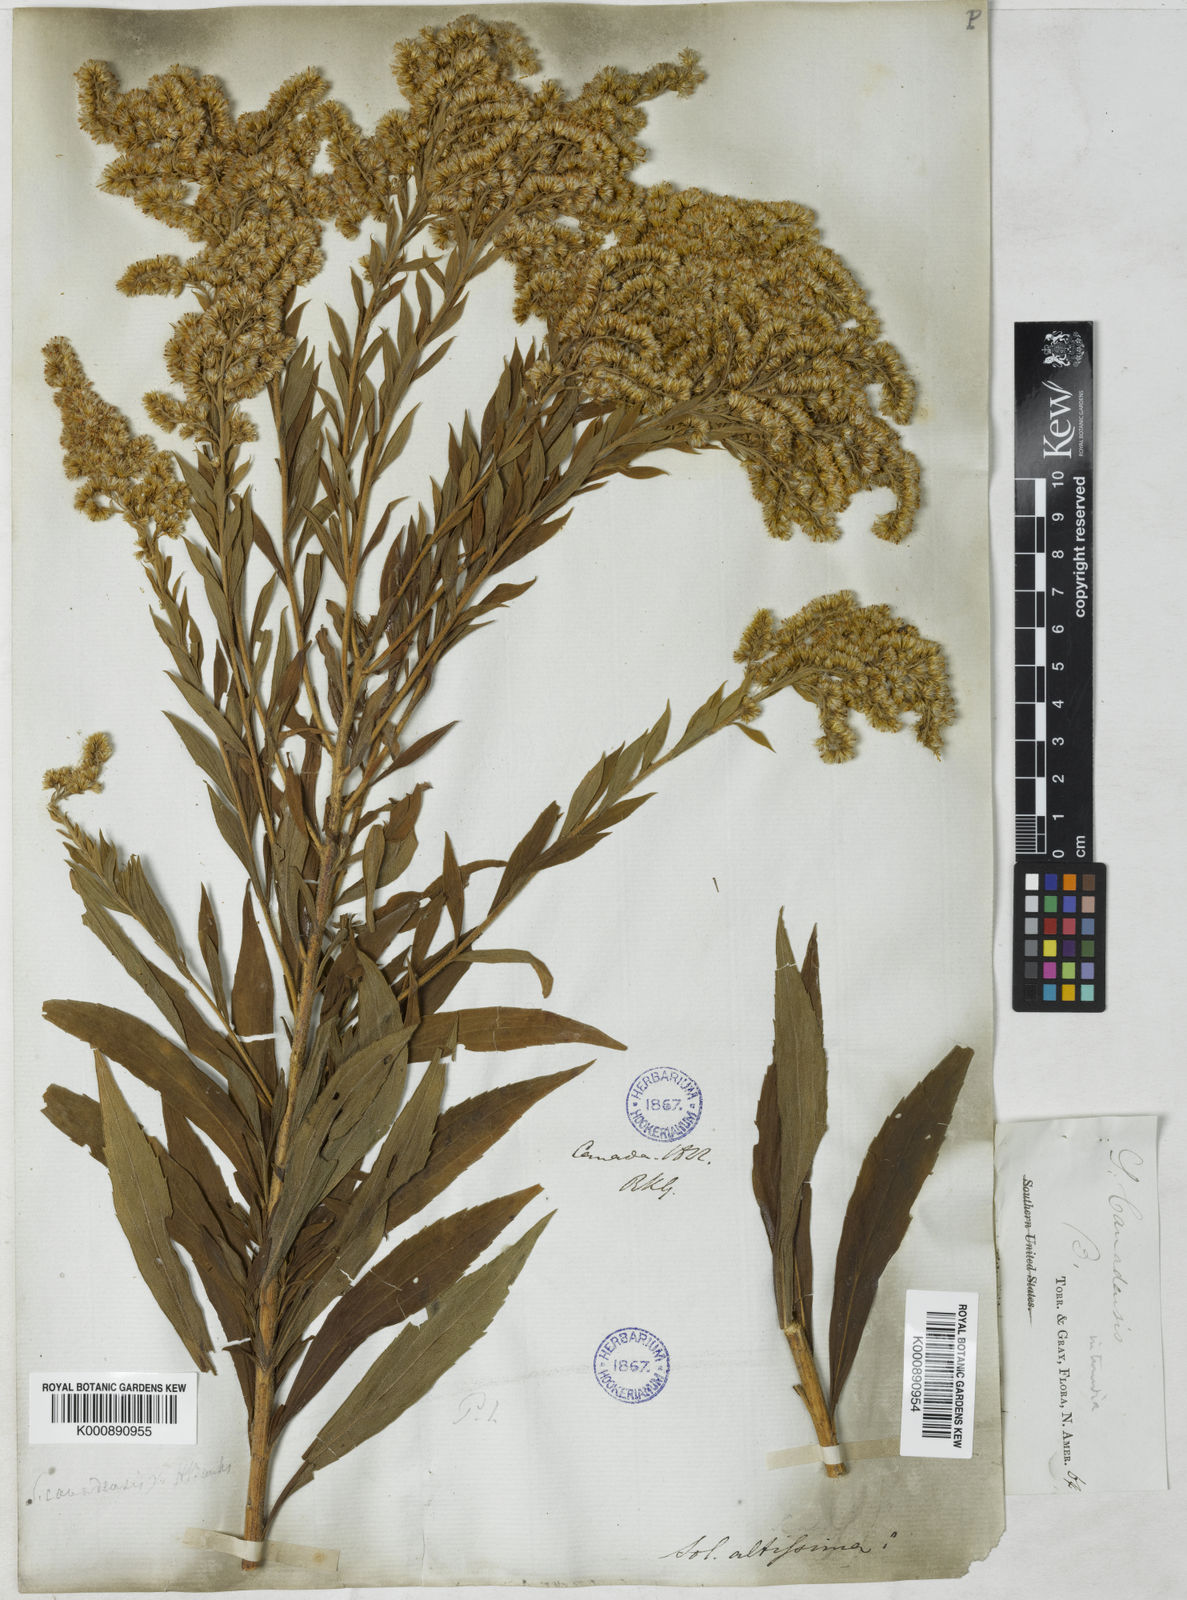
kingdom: Plantae
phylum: Tracheophyta
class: Magnoliopsida
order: Asterales
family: Asteraceae
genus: Solidago
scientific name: Solidago altissima
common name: Late goldenrod
